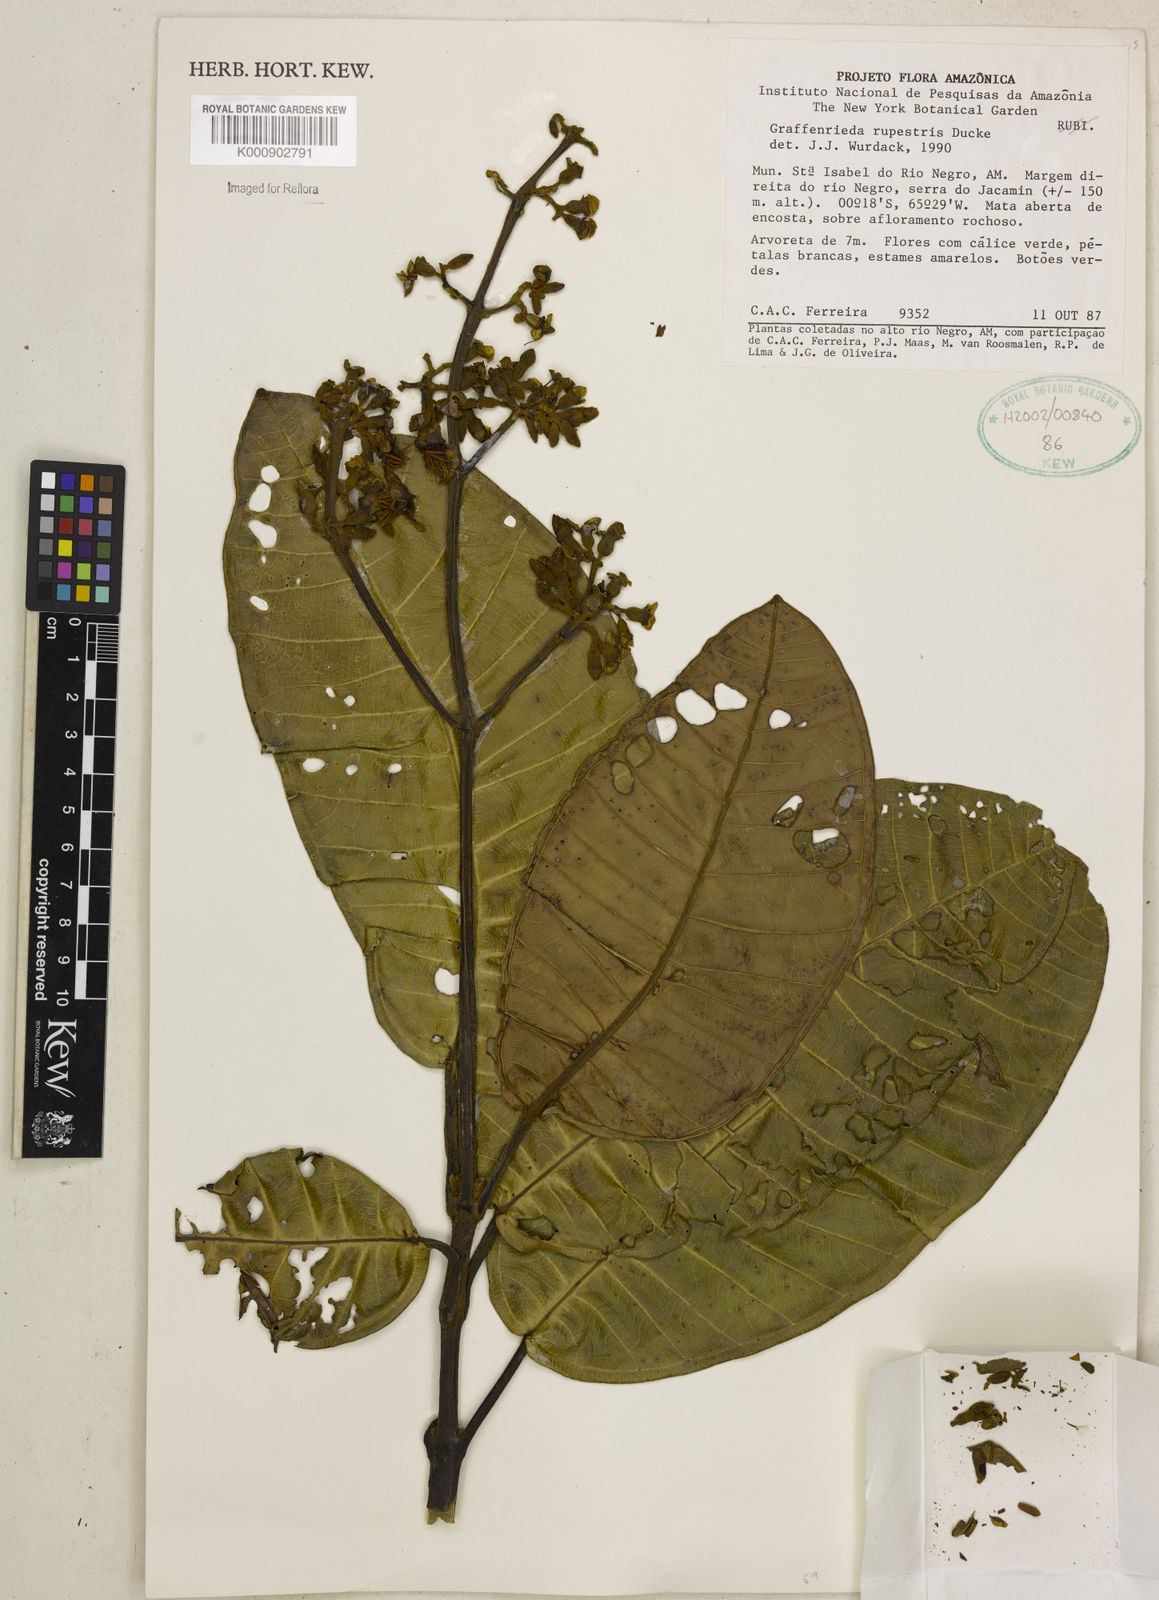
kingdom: Plantae
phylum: Tracheophyta
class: Magnoliopsida
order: Myrtales
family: Melastomataceae
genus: Graffenrieda
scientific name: Graffenrieda rupestris
